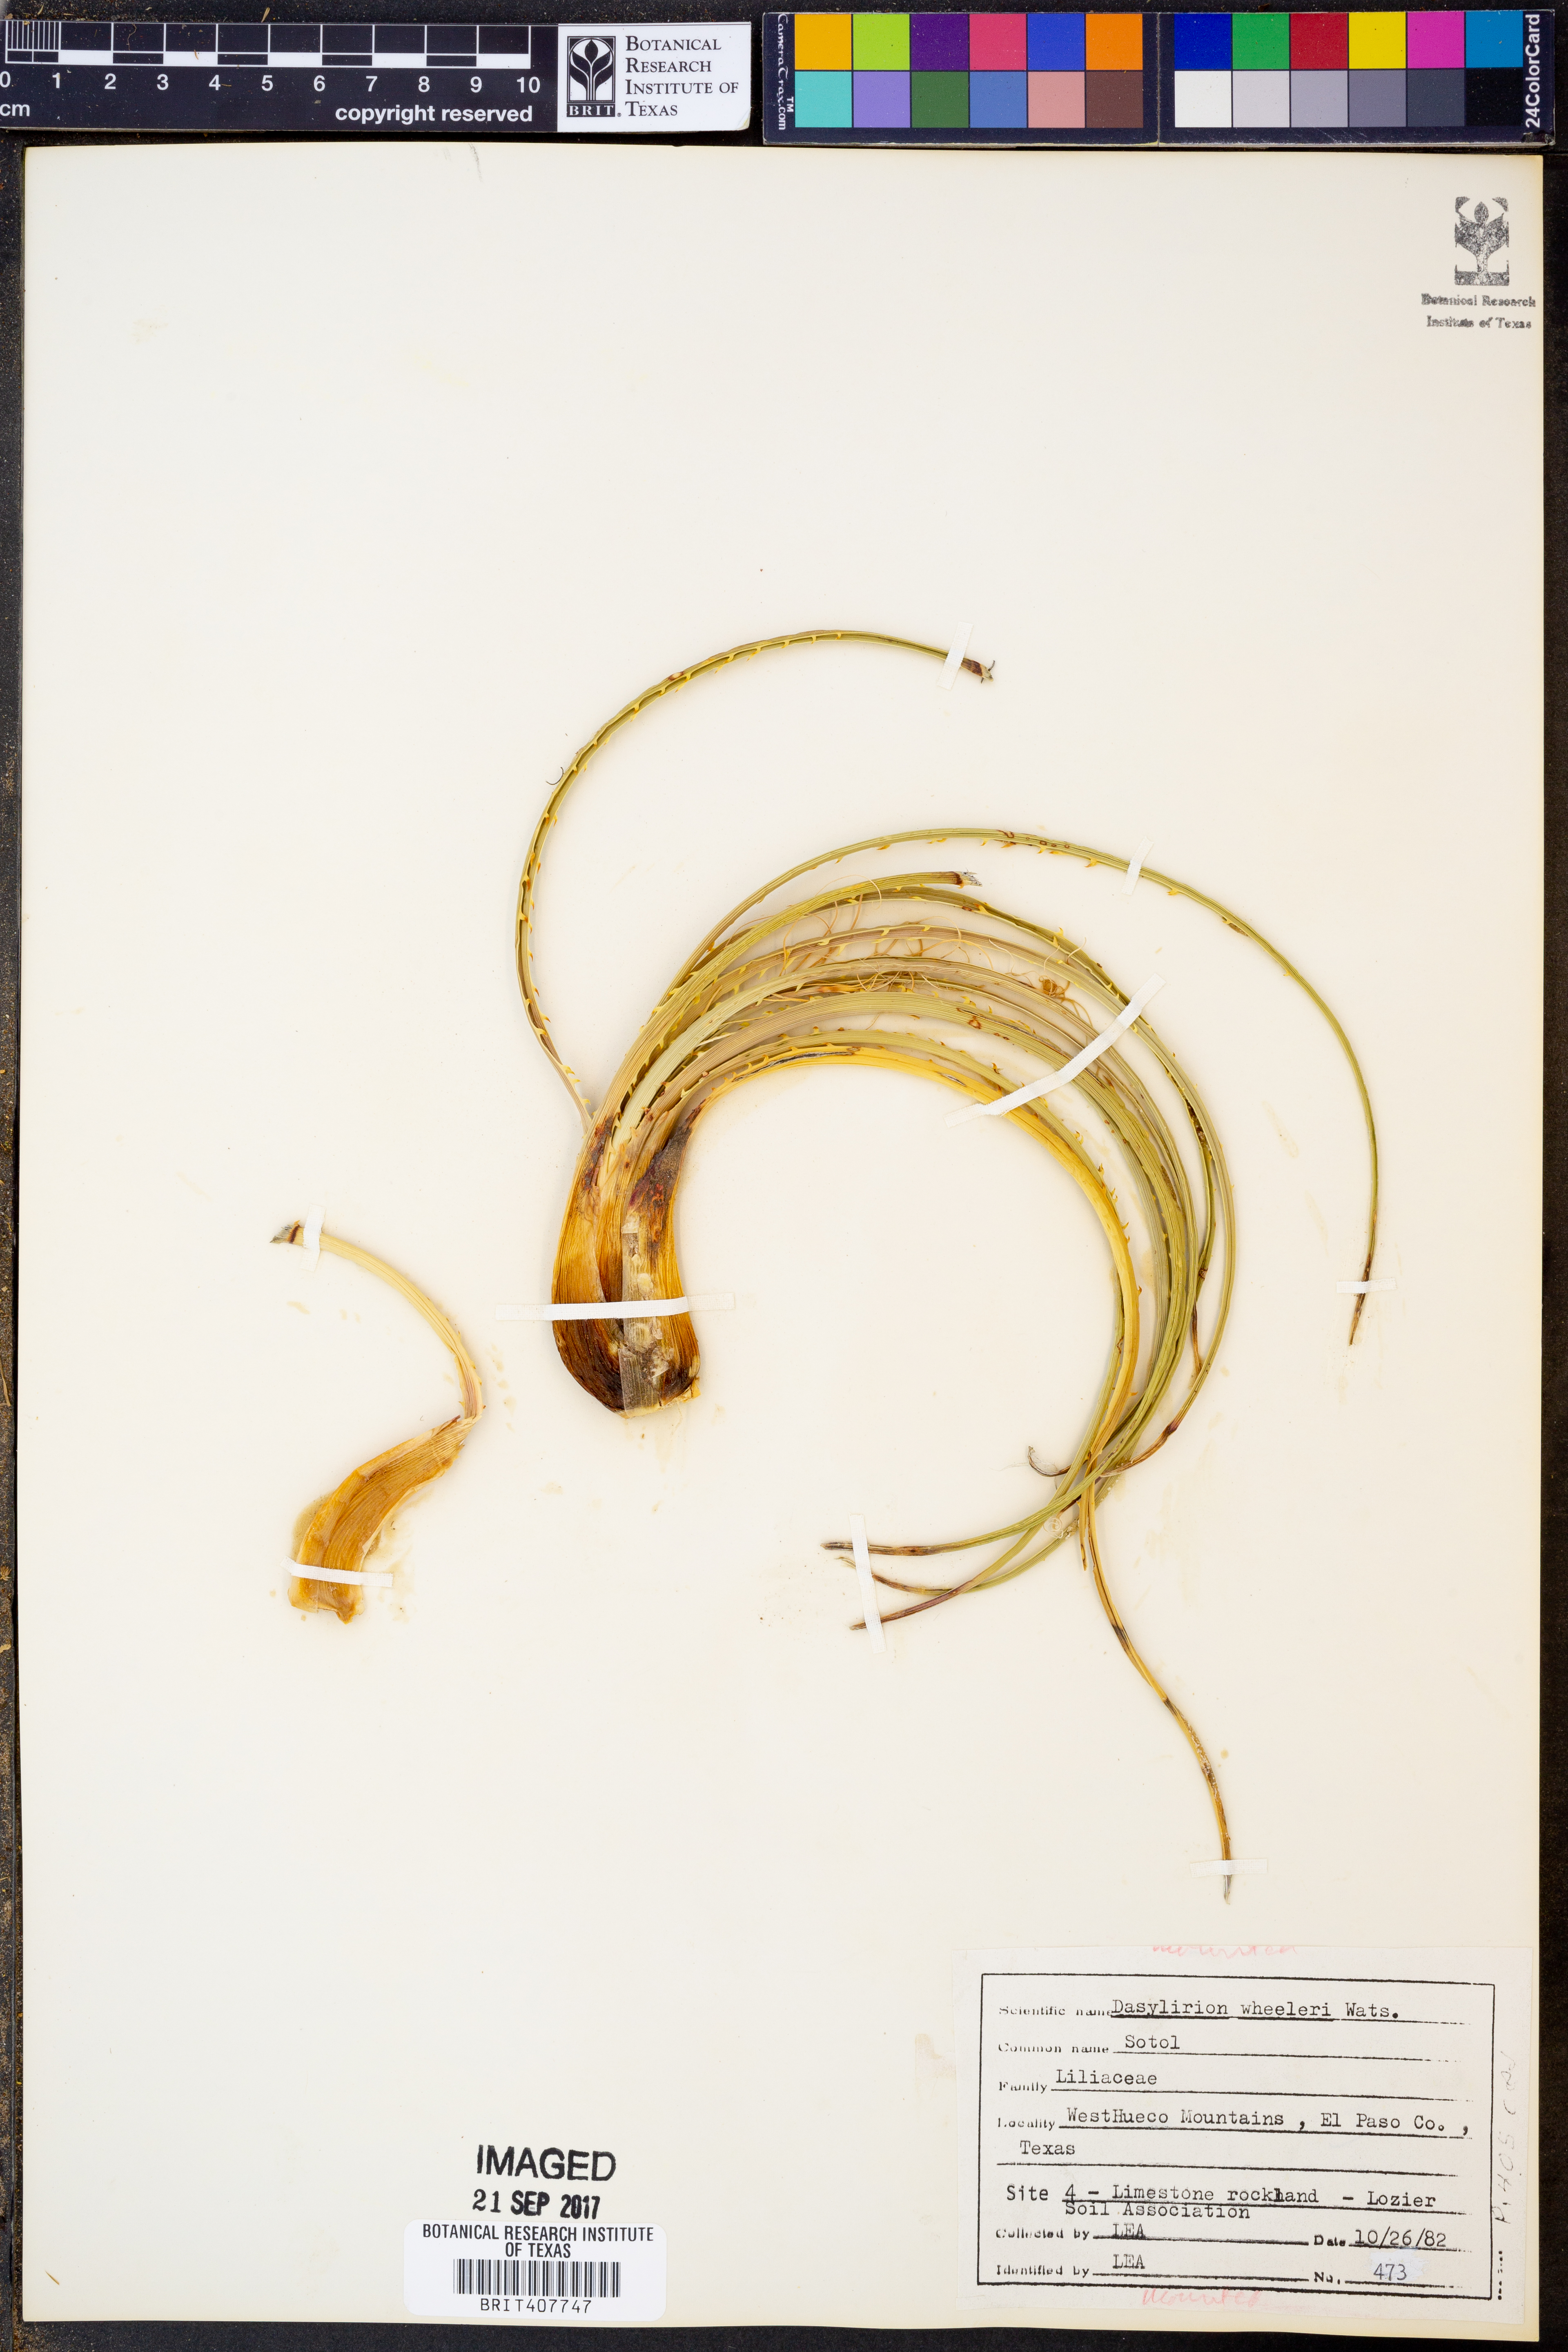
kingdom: Plantae
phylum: Tracheophyta
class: Liliopsida
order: Asparagales
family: Asparagaceae
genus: Dasylirion
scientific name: Dasylirion wheeleri
